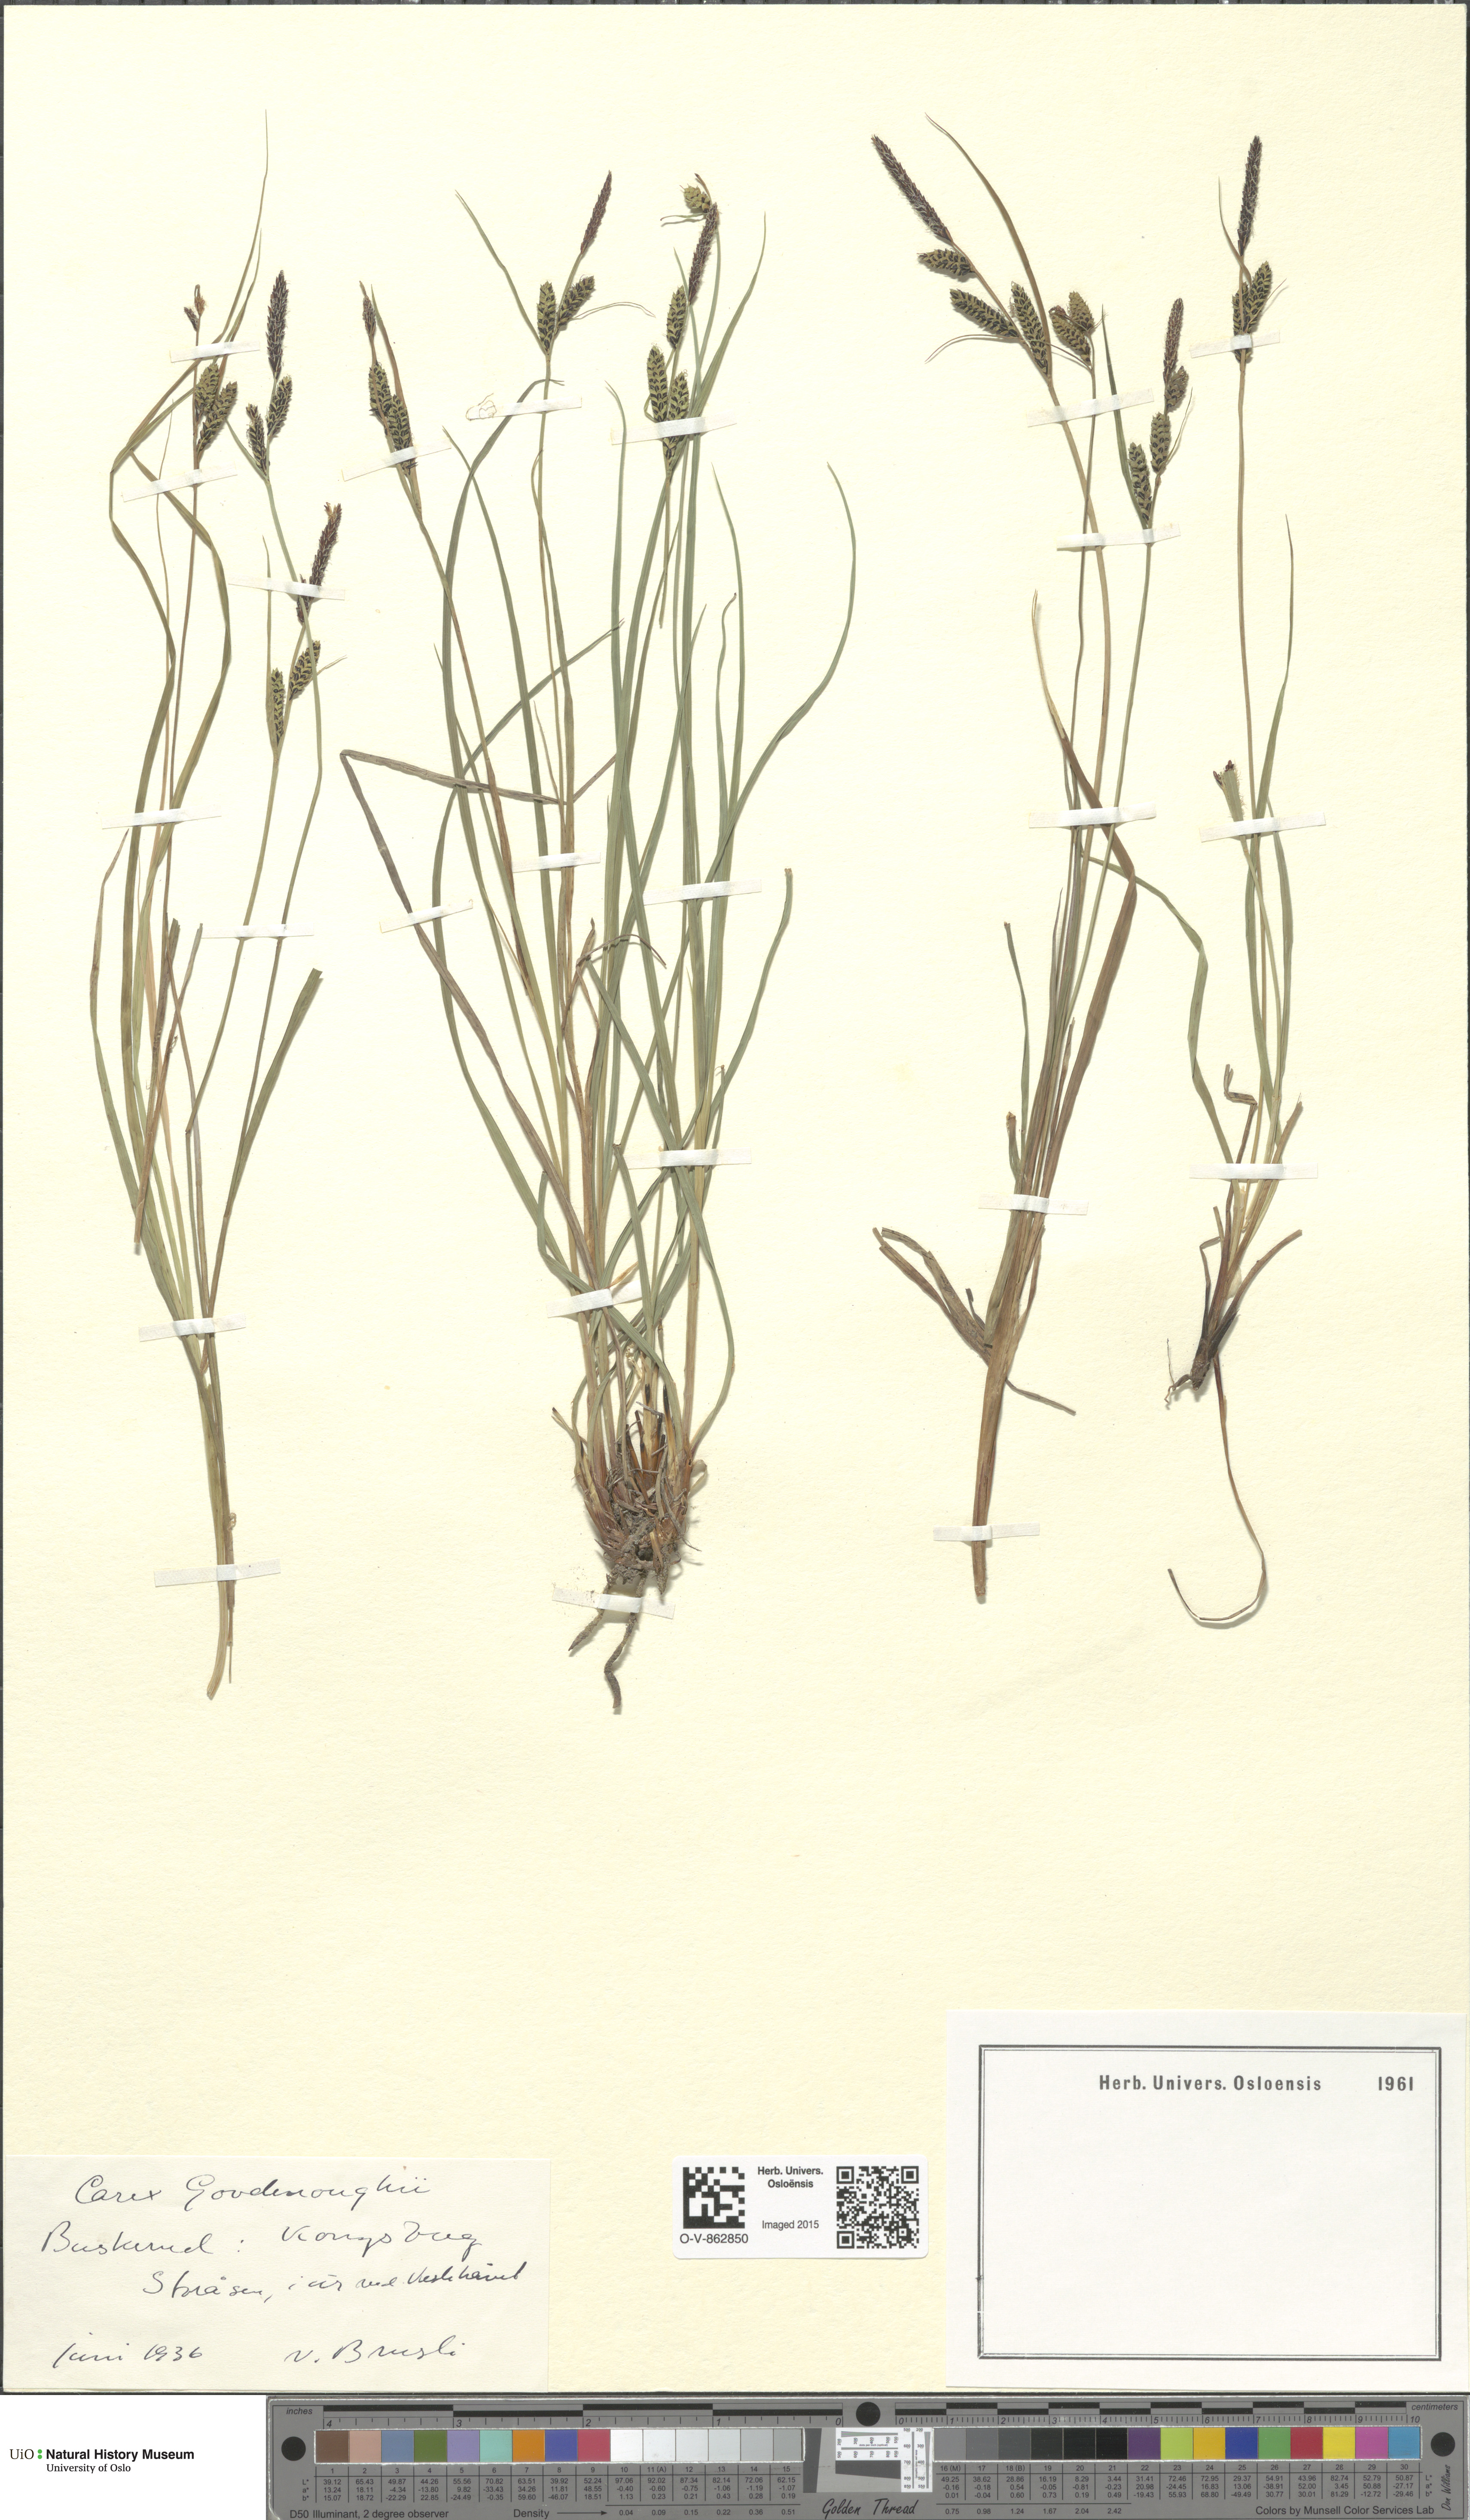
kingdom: Plantae
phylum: Tracheophyta
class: Liliopsida
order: Poales
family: Cyperaceae
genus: Carex
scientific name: Carex nigra
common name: Common sedge
